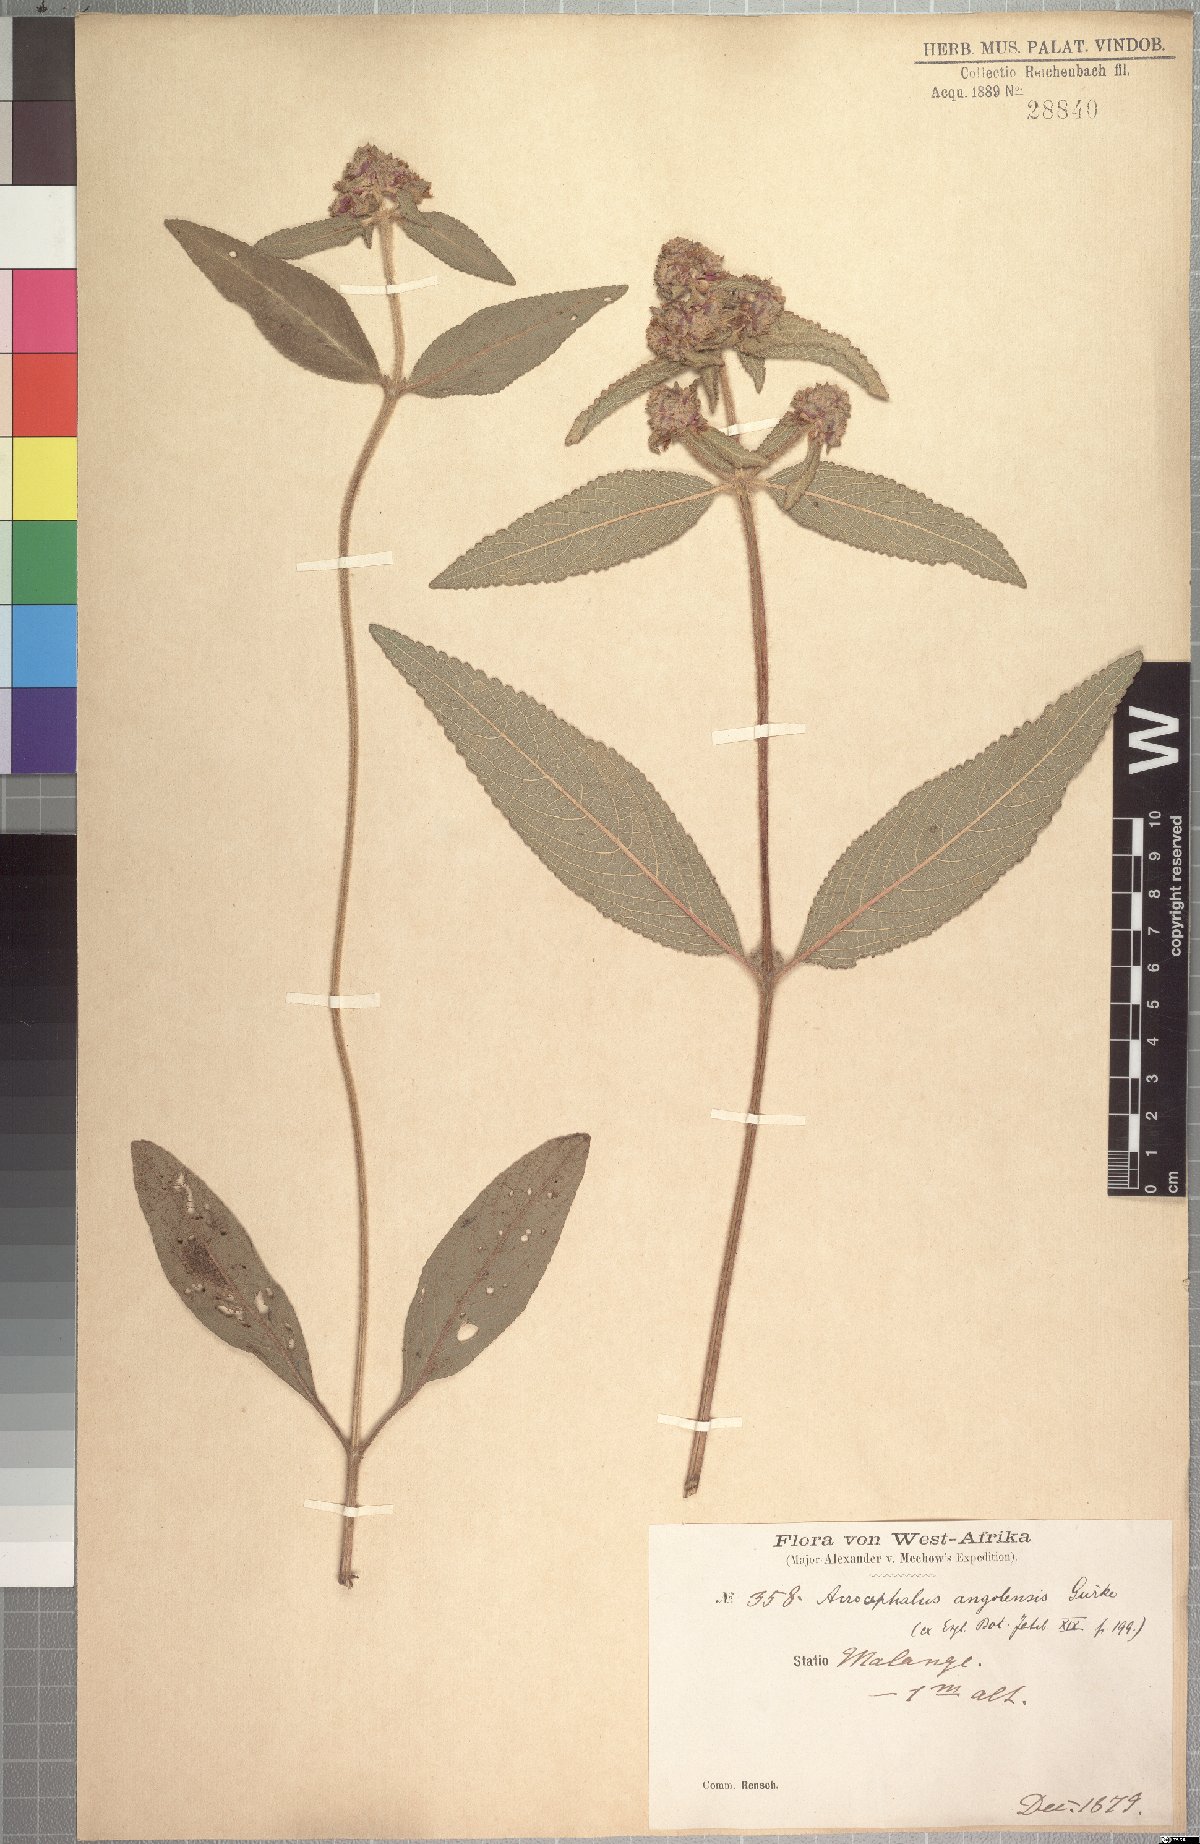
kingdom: Plantae
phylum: Tracheophyta
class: Magnoliopsida
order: Lamiales
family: Lamiaceae
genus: Haumaniastrum
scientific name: Haumaniastrum villosum
